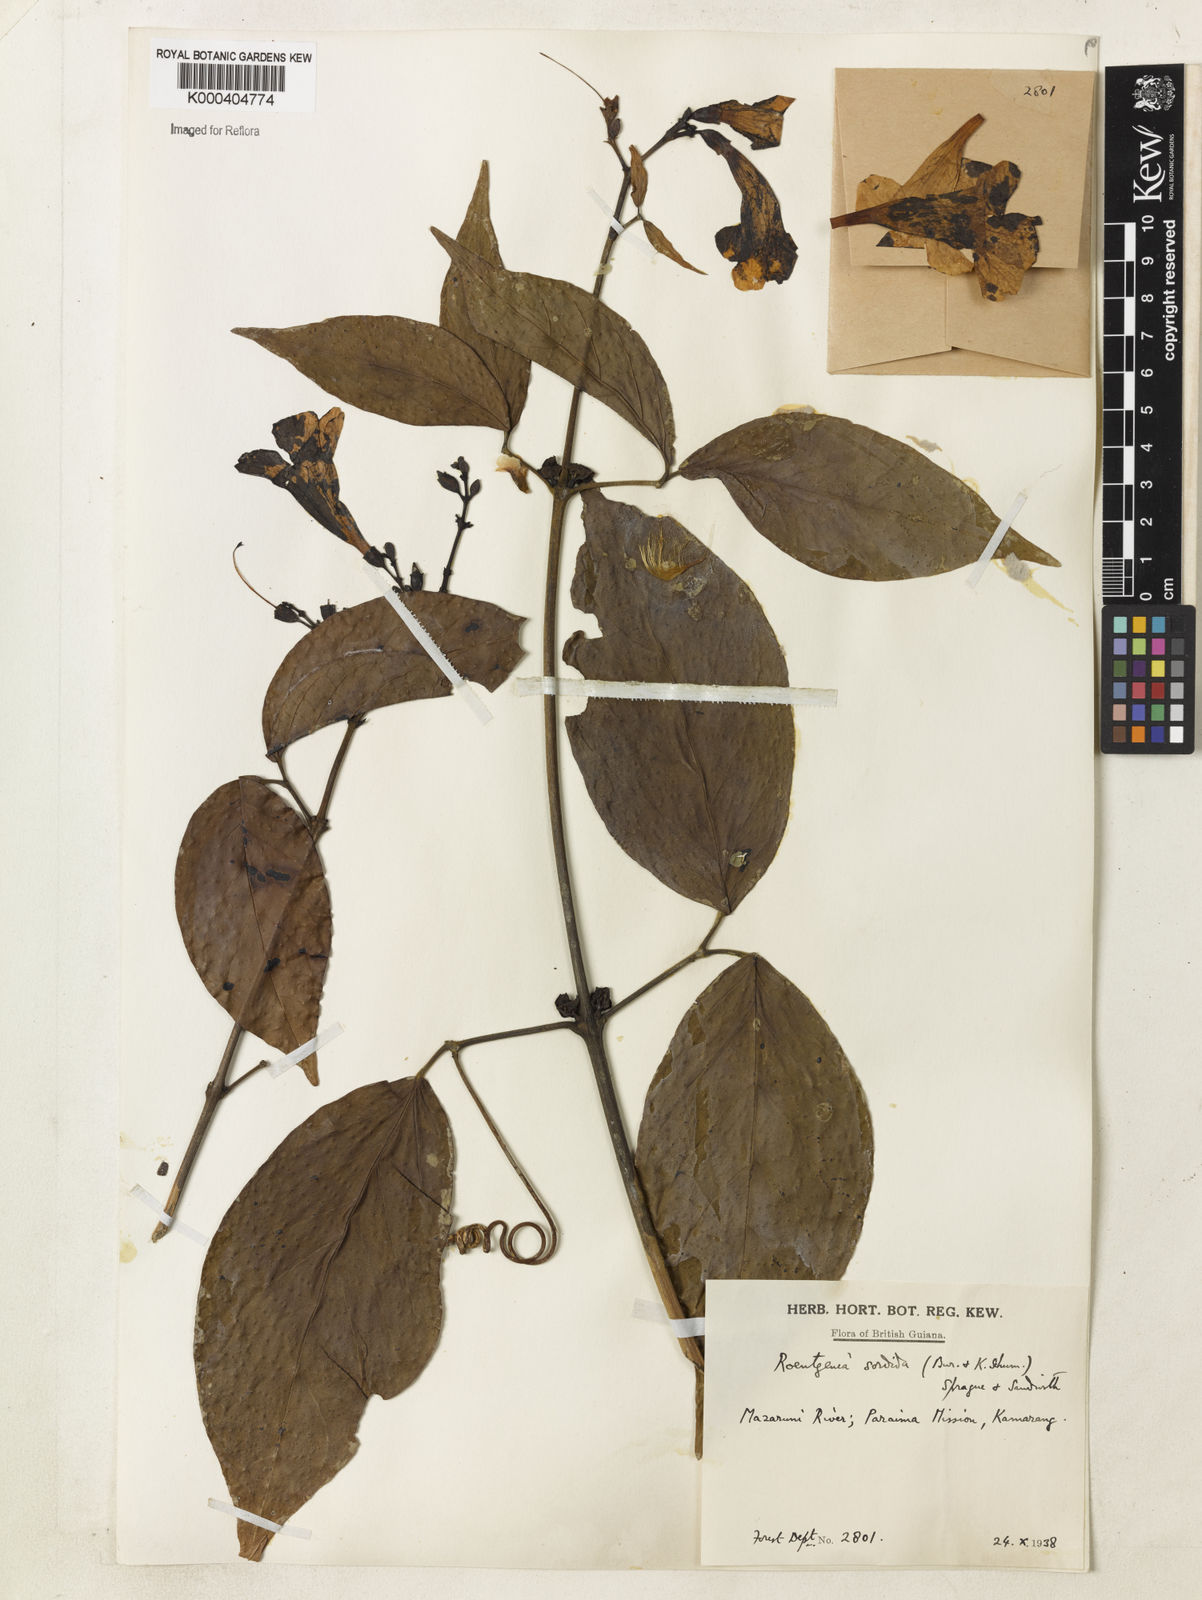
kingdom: Plantae
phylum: Tracheophyta
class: Magnoliopsida
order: Lamiales
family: Bignoniaceae
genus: Bignonia
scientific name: Bignonia sordida
